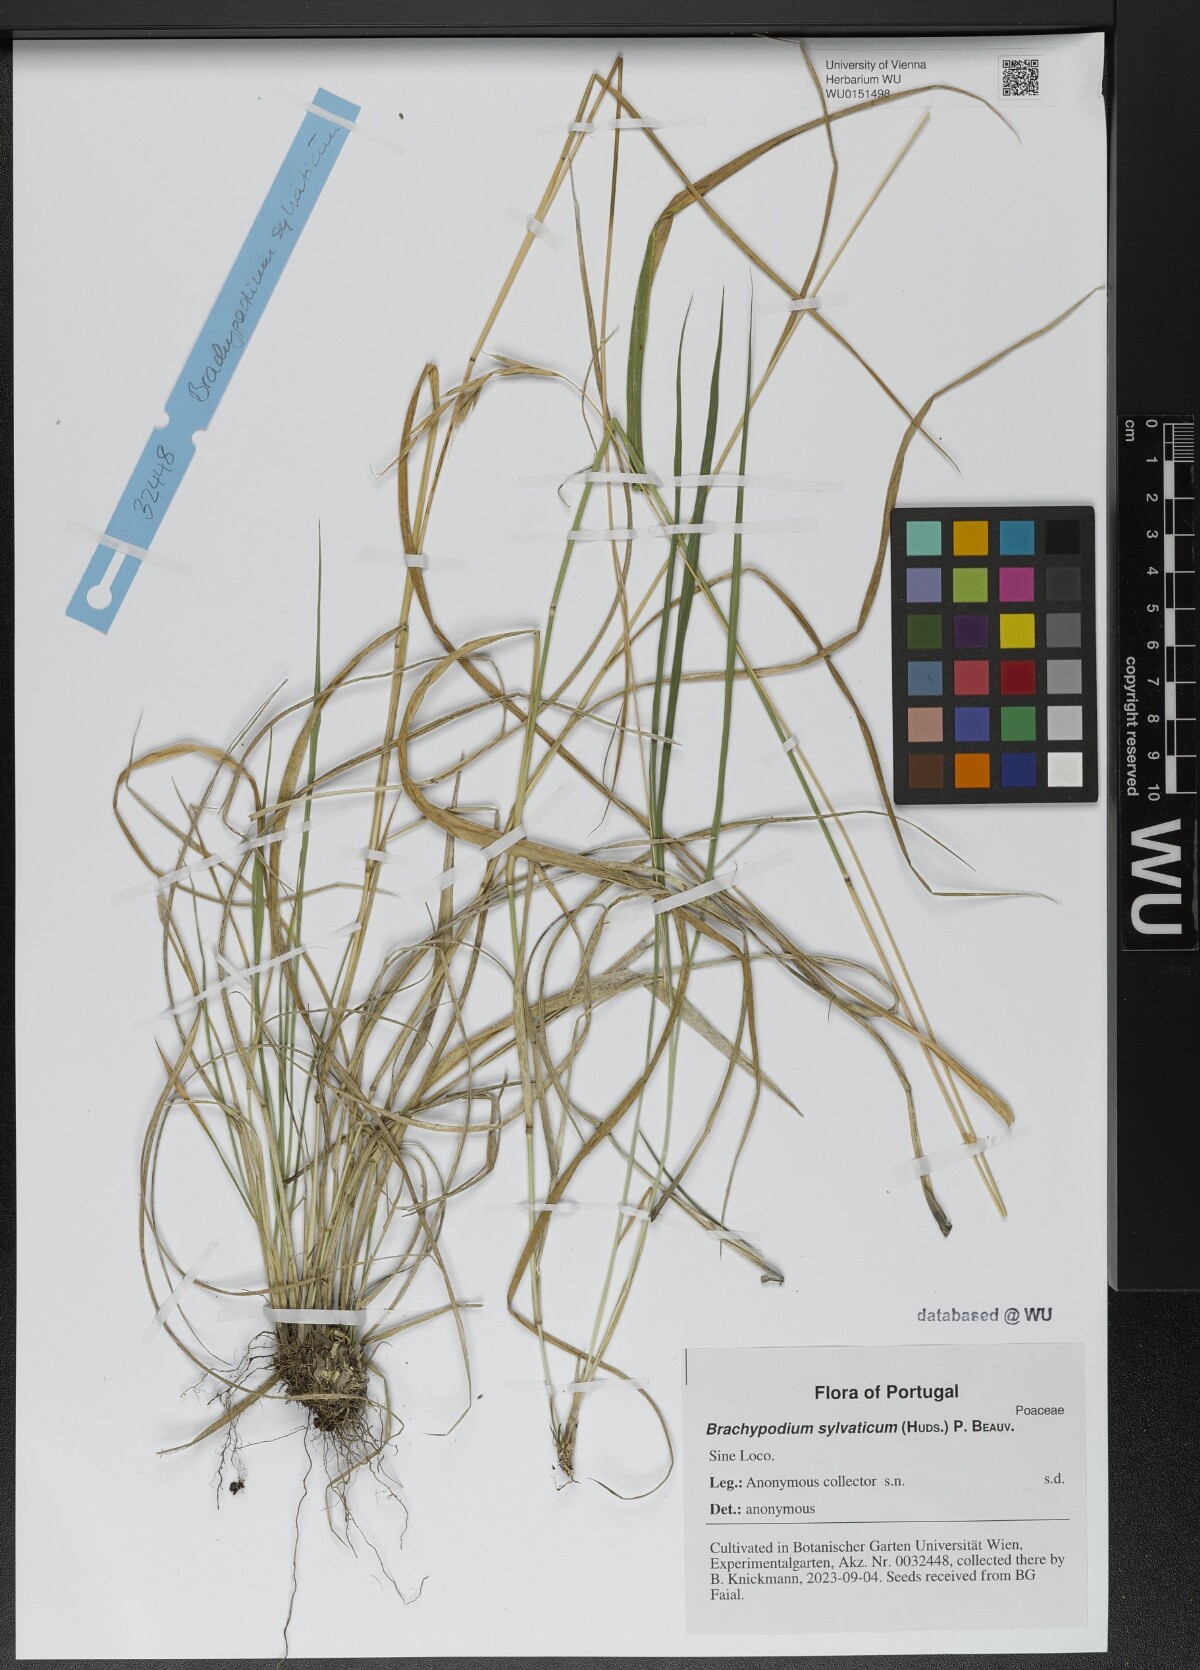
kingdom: Plantae
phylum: Tracheophyta
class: Liliopsida
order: Poales
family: Poaceae
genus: Brachypodium
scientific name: Brachypodium sylvaticum
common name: False-brome
